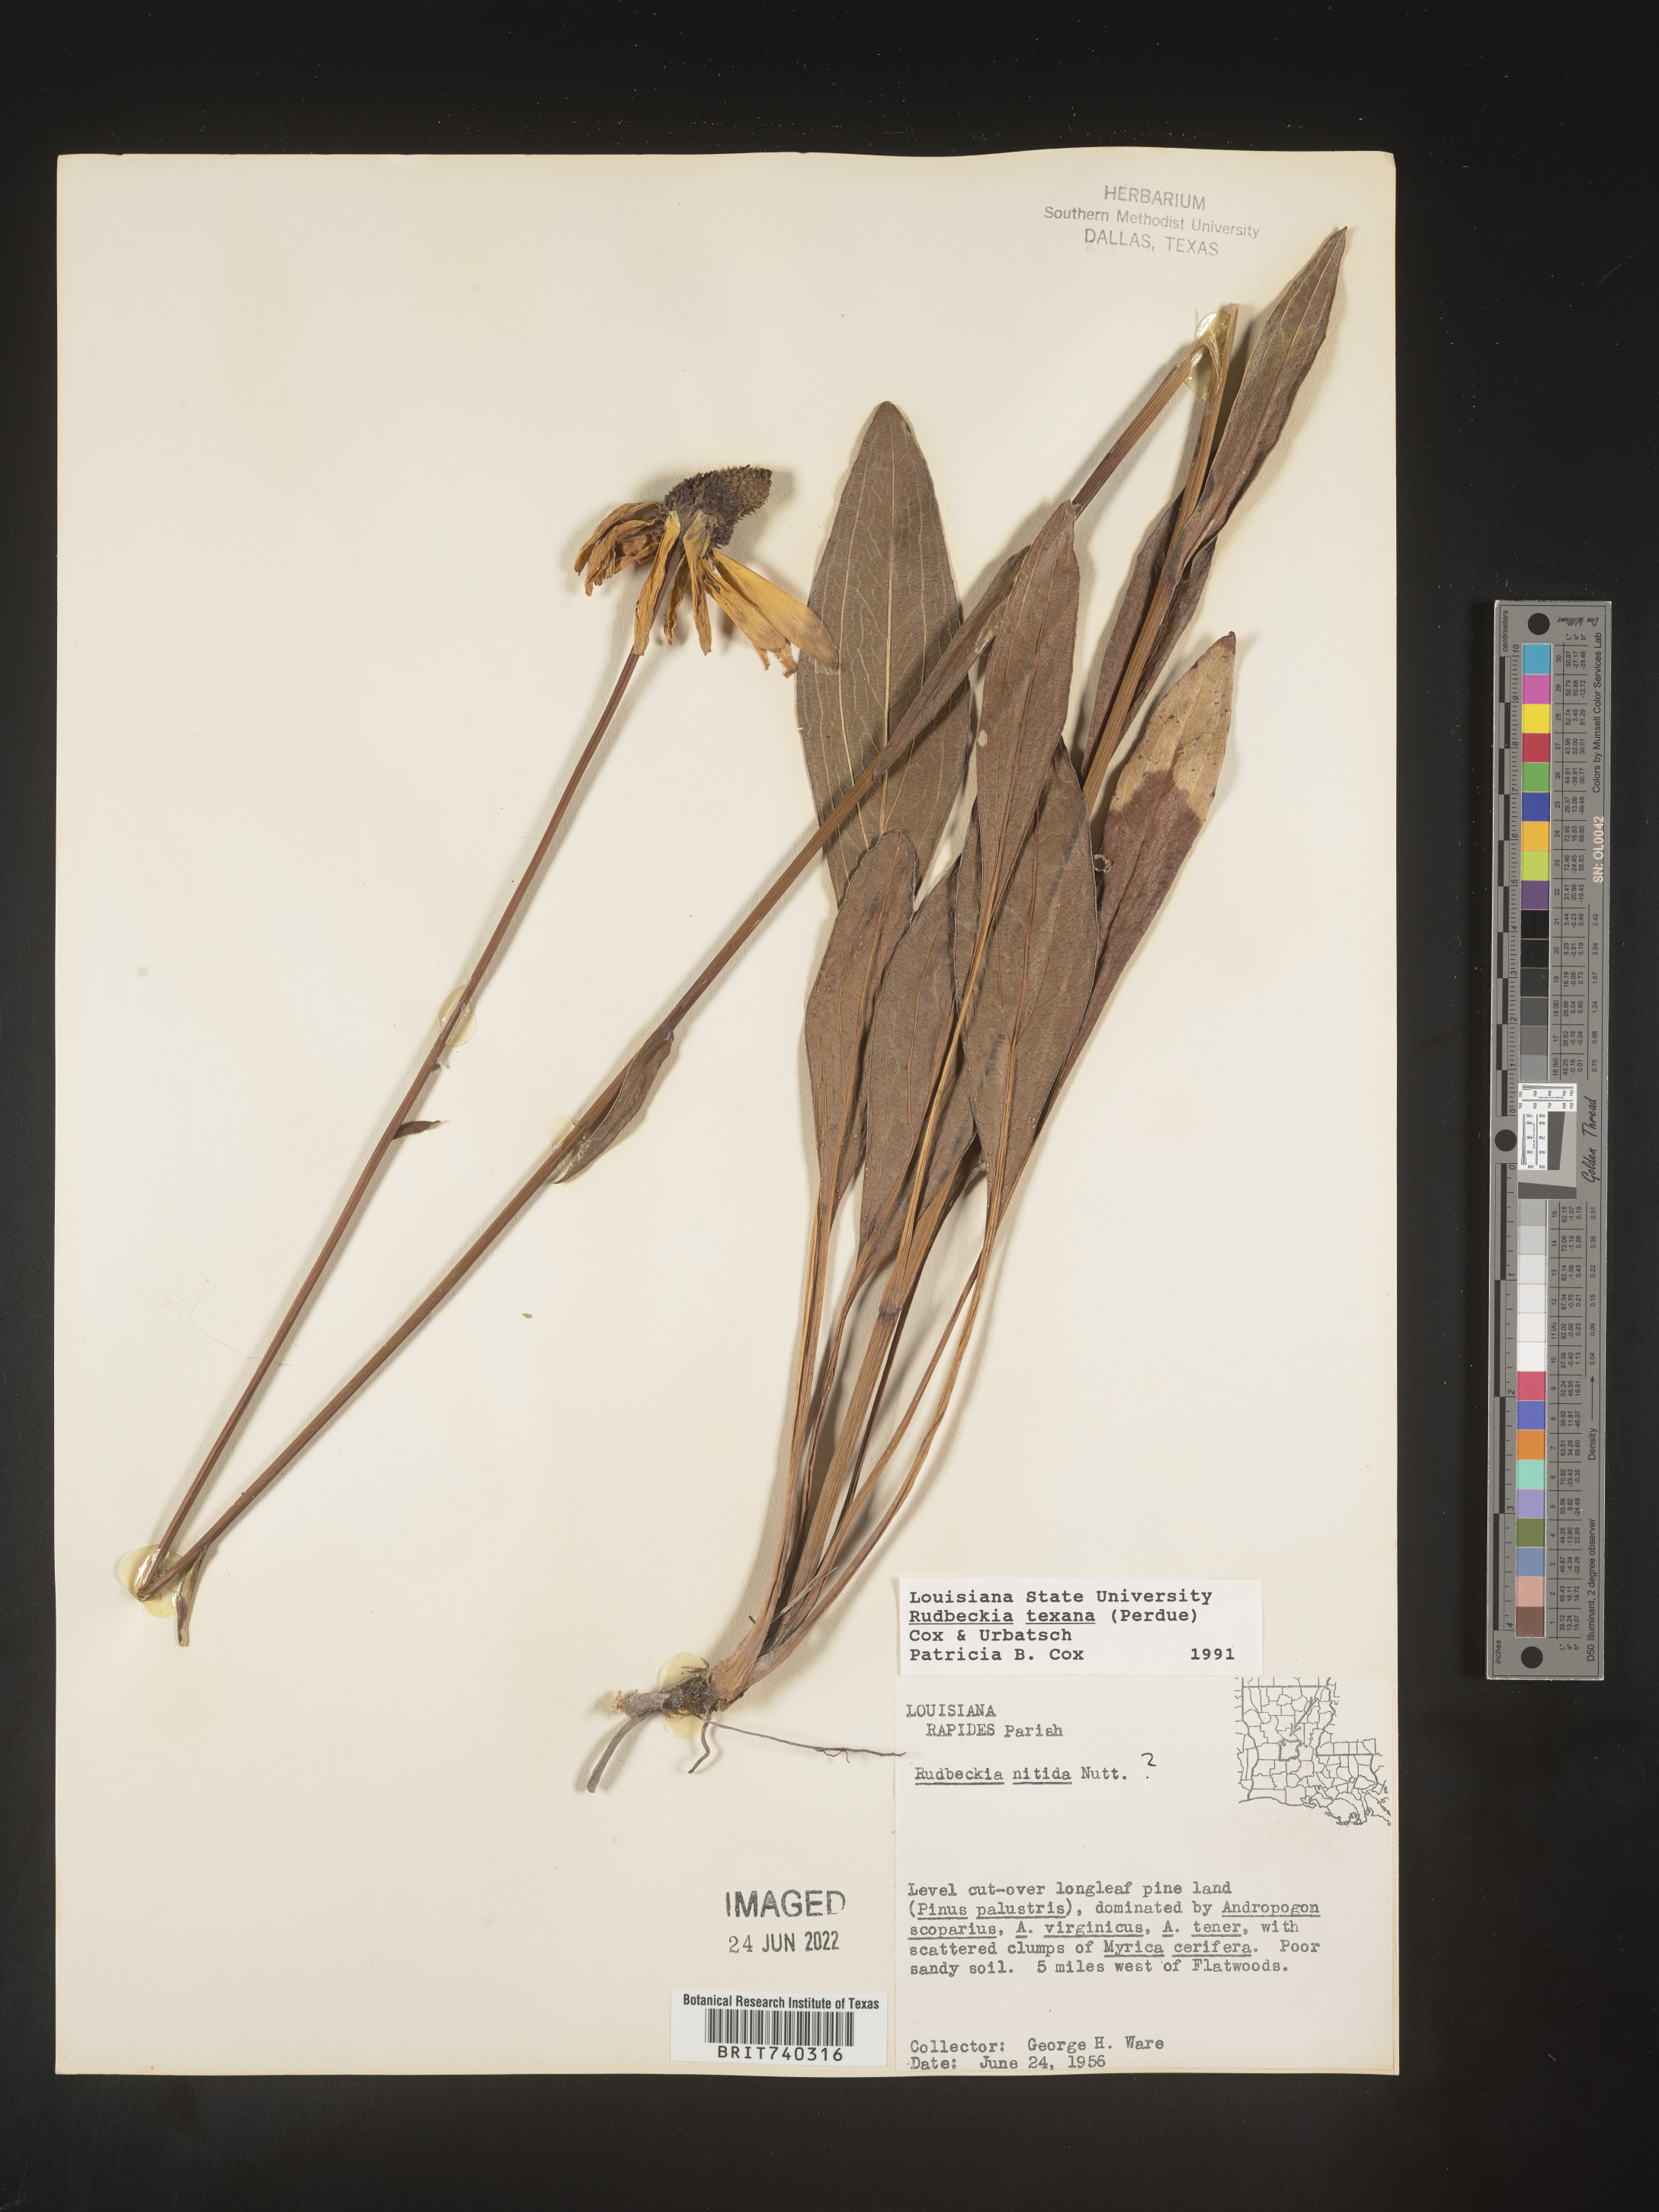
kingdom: Plantae
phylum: Tracheophyta
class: Magnoliopsida
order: Asterales
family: Asteraceae
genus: Rudbeckia
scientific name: Rudbeckia texana
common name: Texas coneflower
